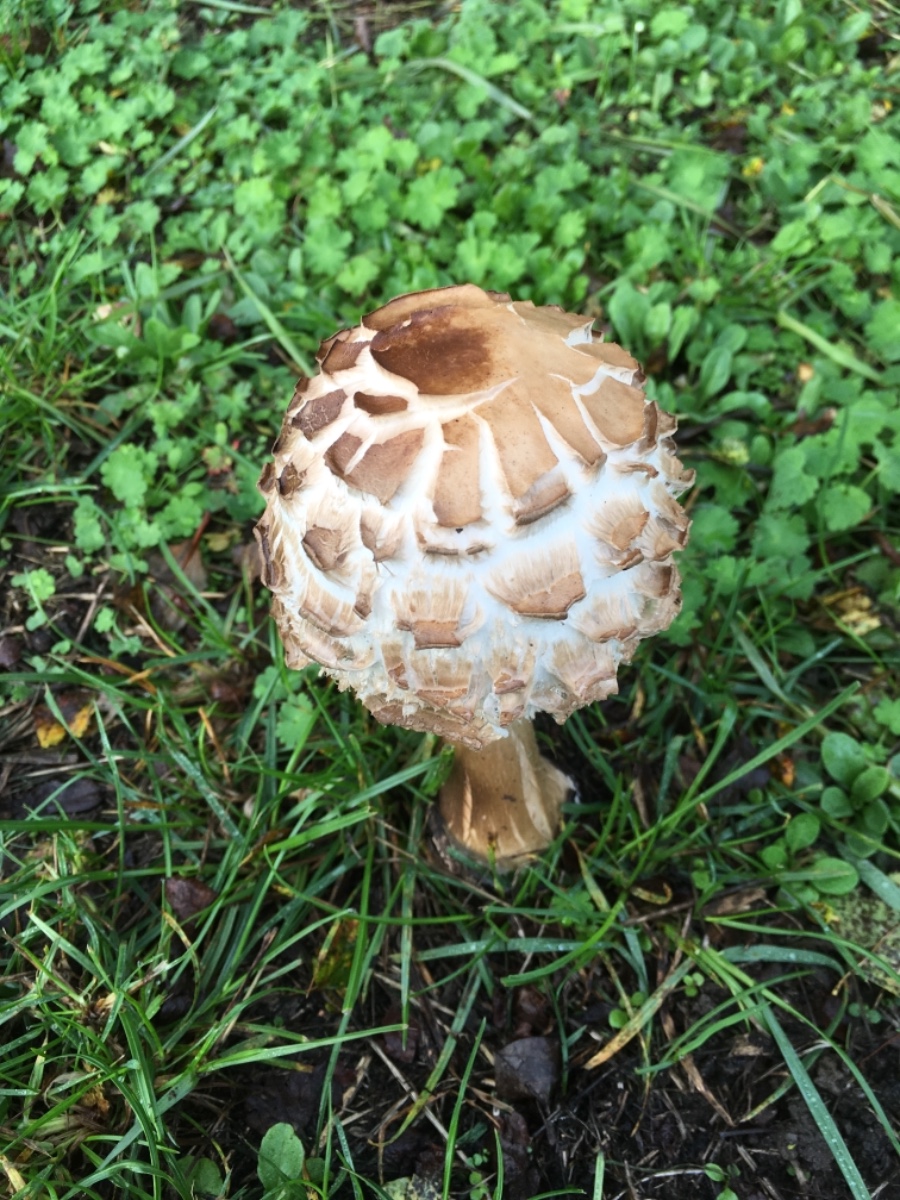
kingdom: Fungi
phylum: Basidiomycota
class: Agaricomycetes
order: Agaricales
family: Agaricaceae
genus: Chlorophyllum
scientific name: Chlorophyllum brunneum
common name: giftig rabarberhat
